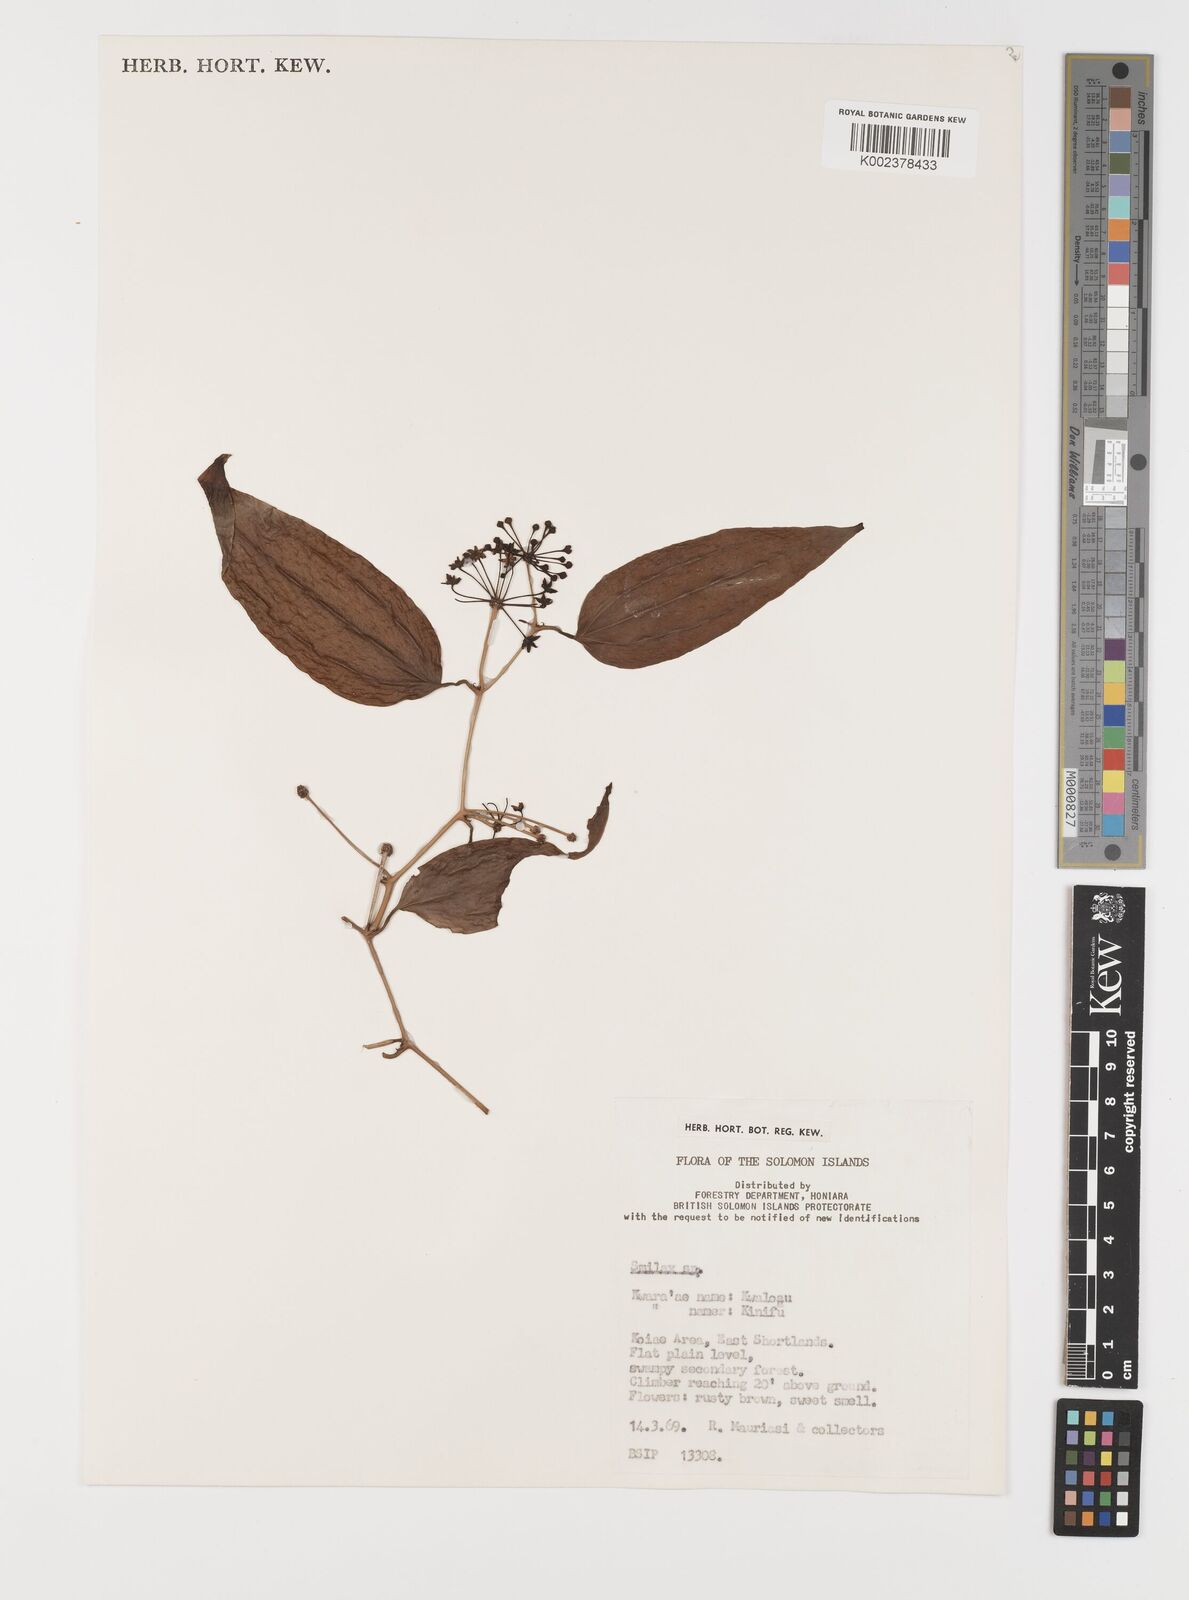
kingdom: Plantae
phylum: Tracheophyta
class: Liliopsida
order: Liliales
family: Smilacaceae
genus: Smilax
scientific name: Smilax
